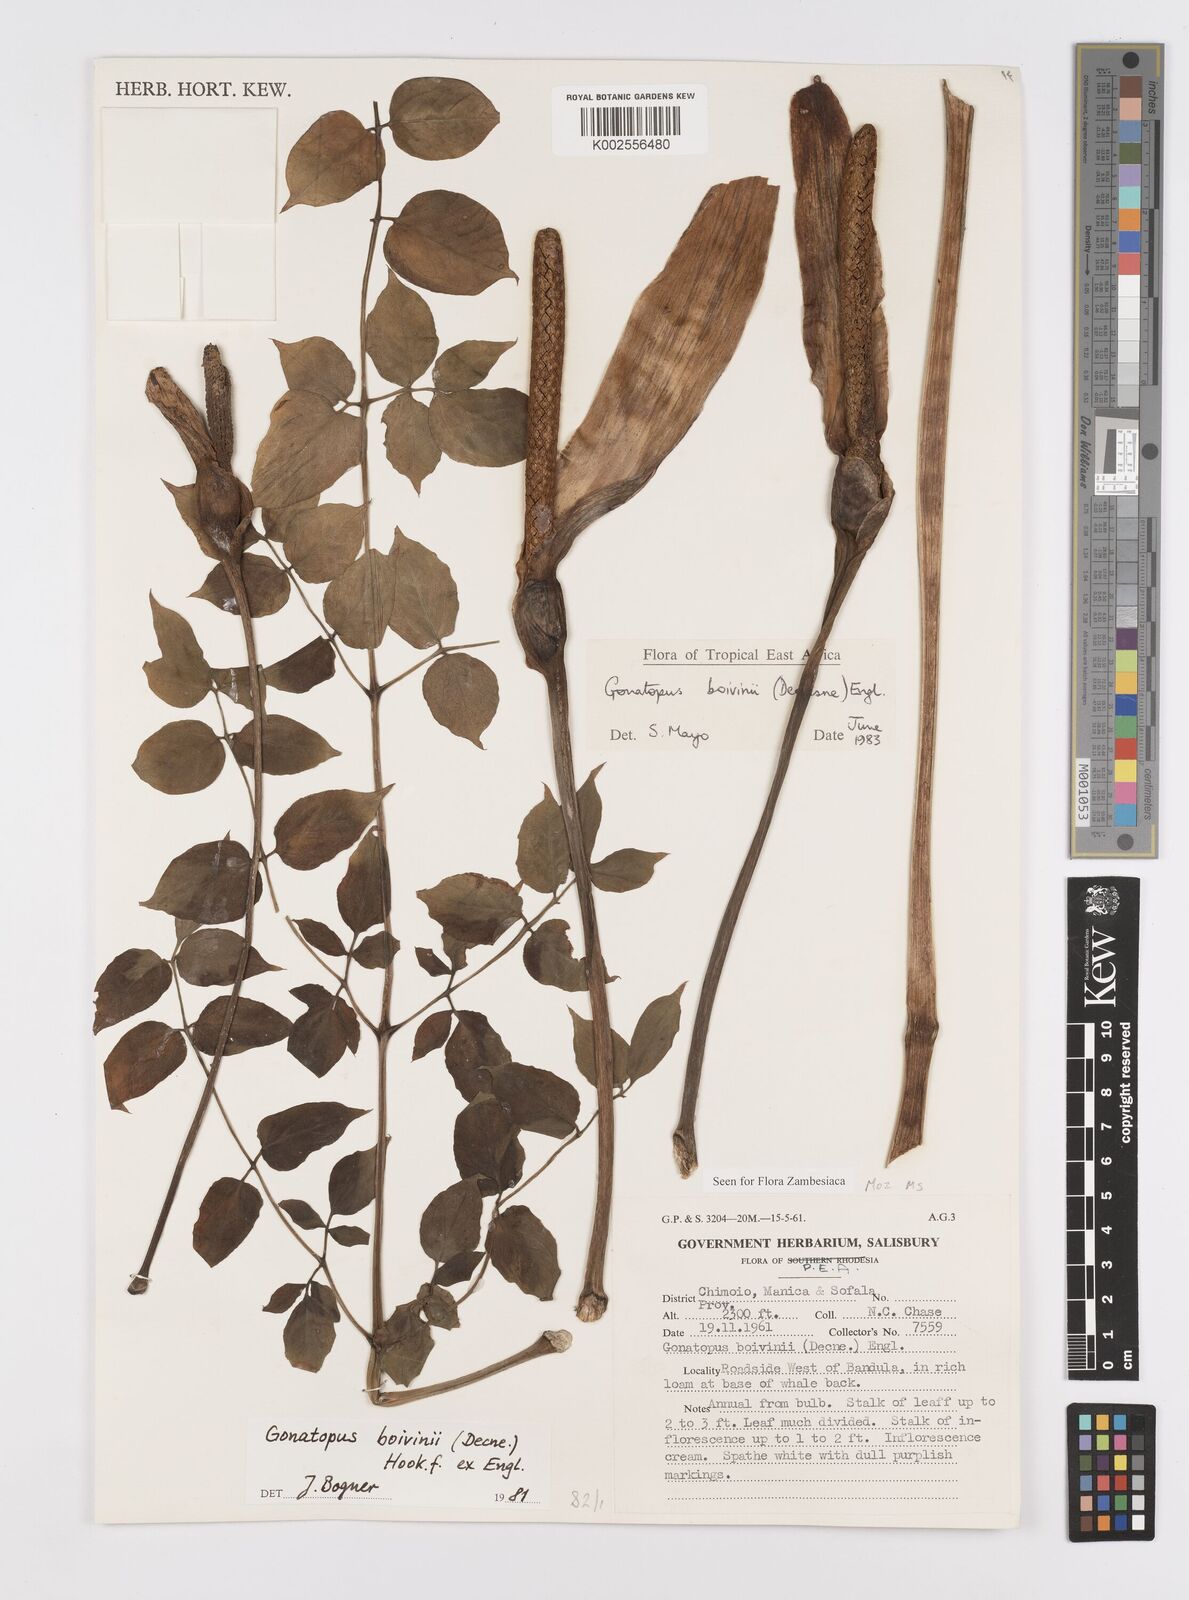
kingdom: Plantae
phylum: Tracheophyta
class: Liliopsida
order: Alismatales
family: Araceae
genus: Gonatopus
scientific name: Gonatopus boivinii
